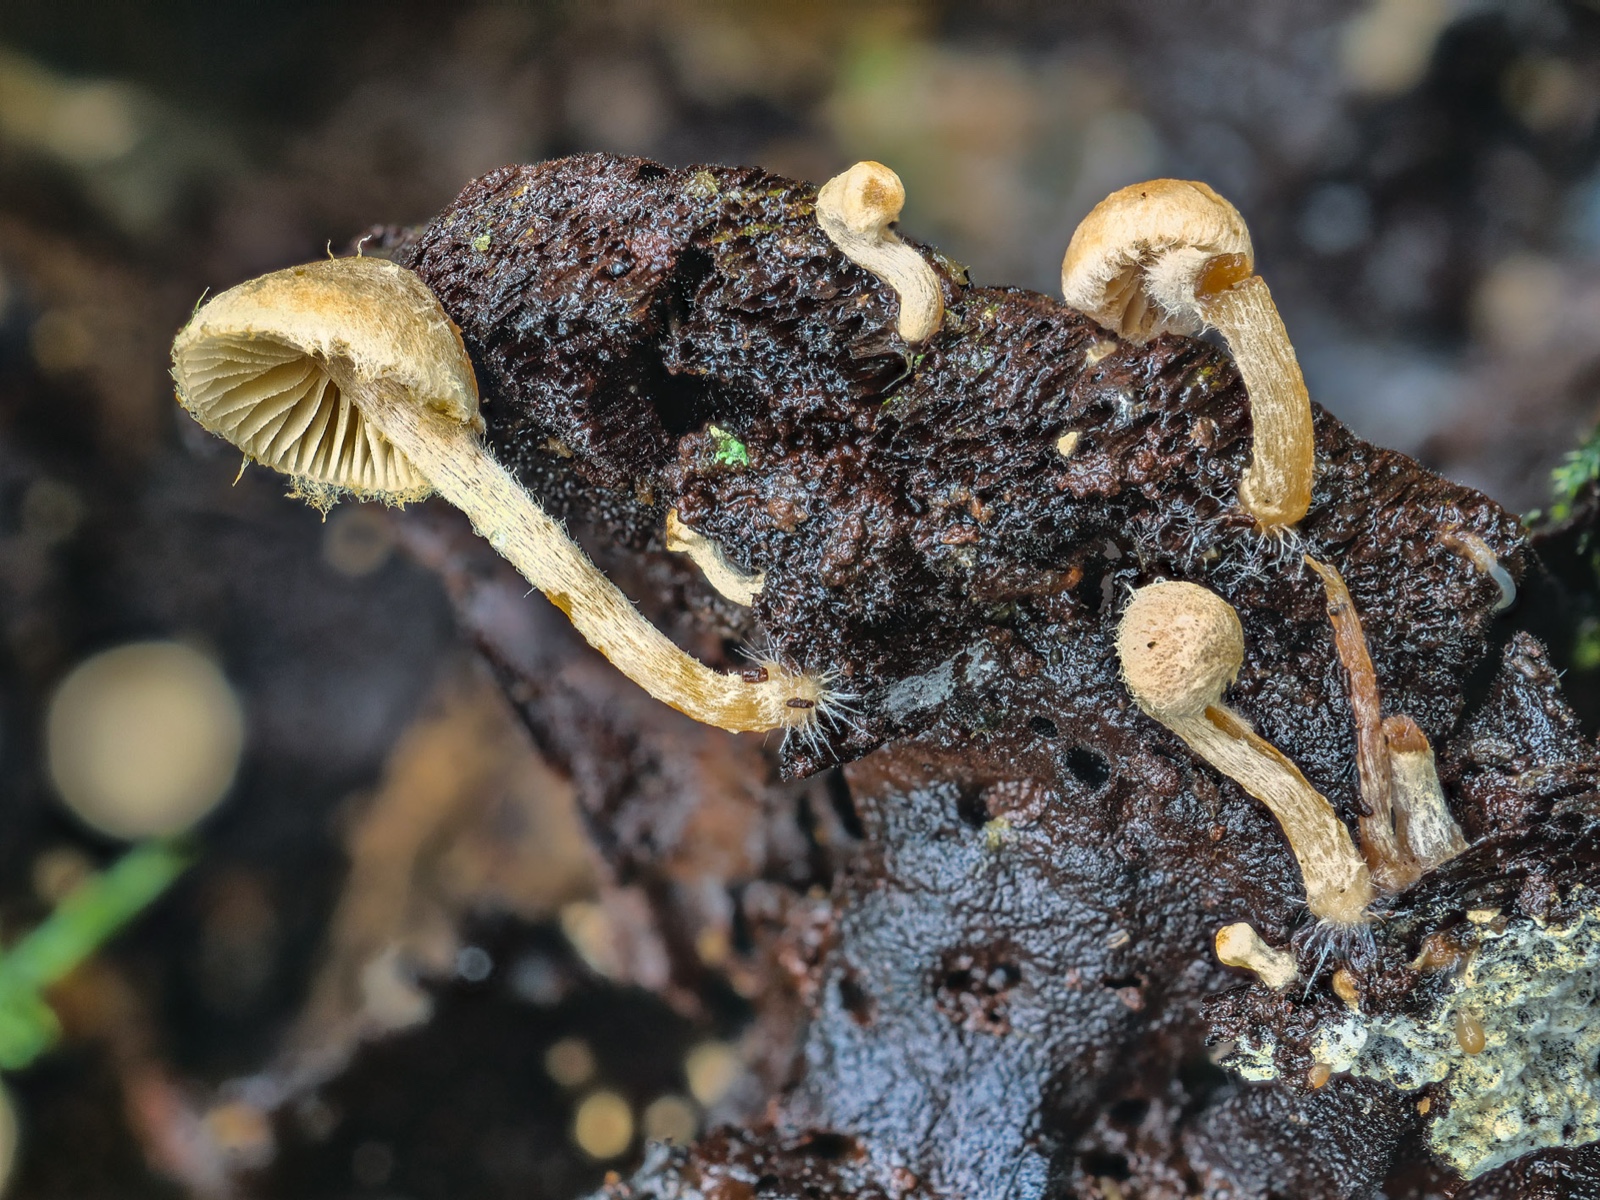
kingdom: Fungi
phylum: Basidiomycota
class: Agaricomycetes
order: Agaricales
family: Tubariaceae
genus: Flammulaster
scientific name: Flammulaster carpophilus
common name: blegrosa grynskælhat
